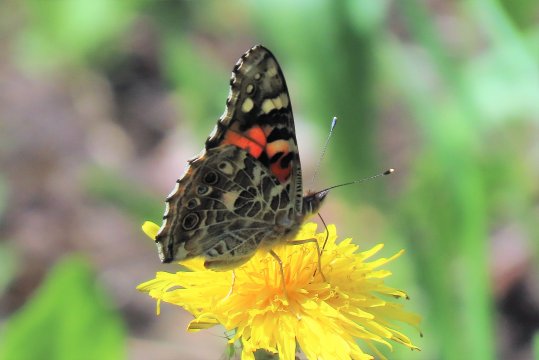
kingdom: Animalia
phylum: Arthropoda
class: Insecta
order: Lepidoptera
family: Nymphalidae
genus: Vanessa
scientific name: Vanessa cardui
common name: Painted Lady
